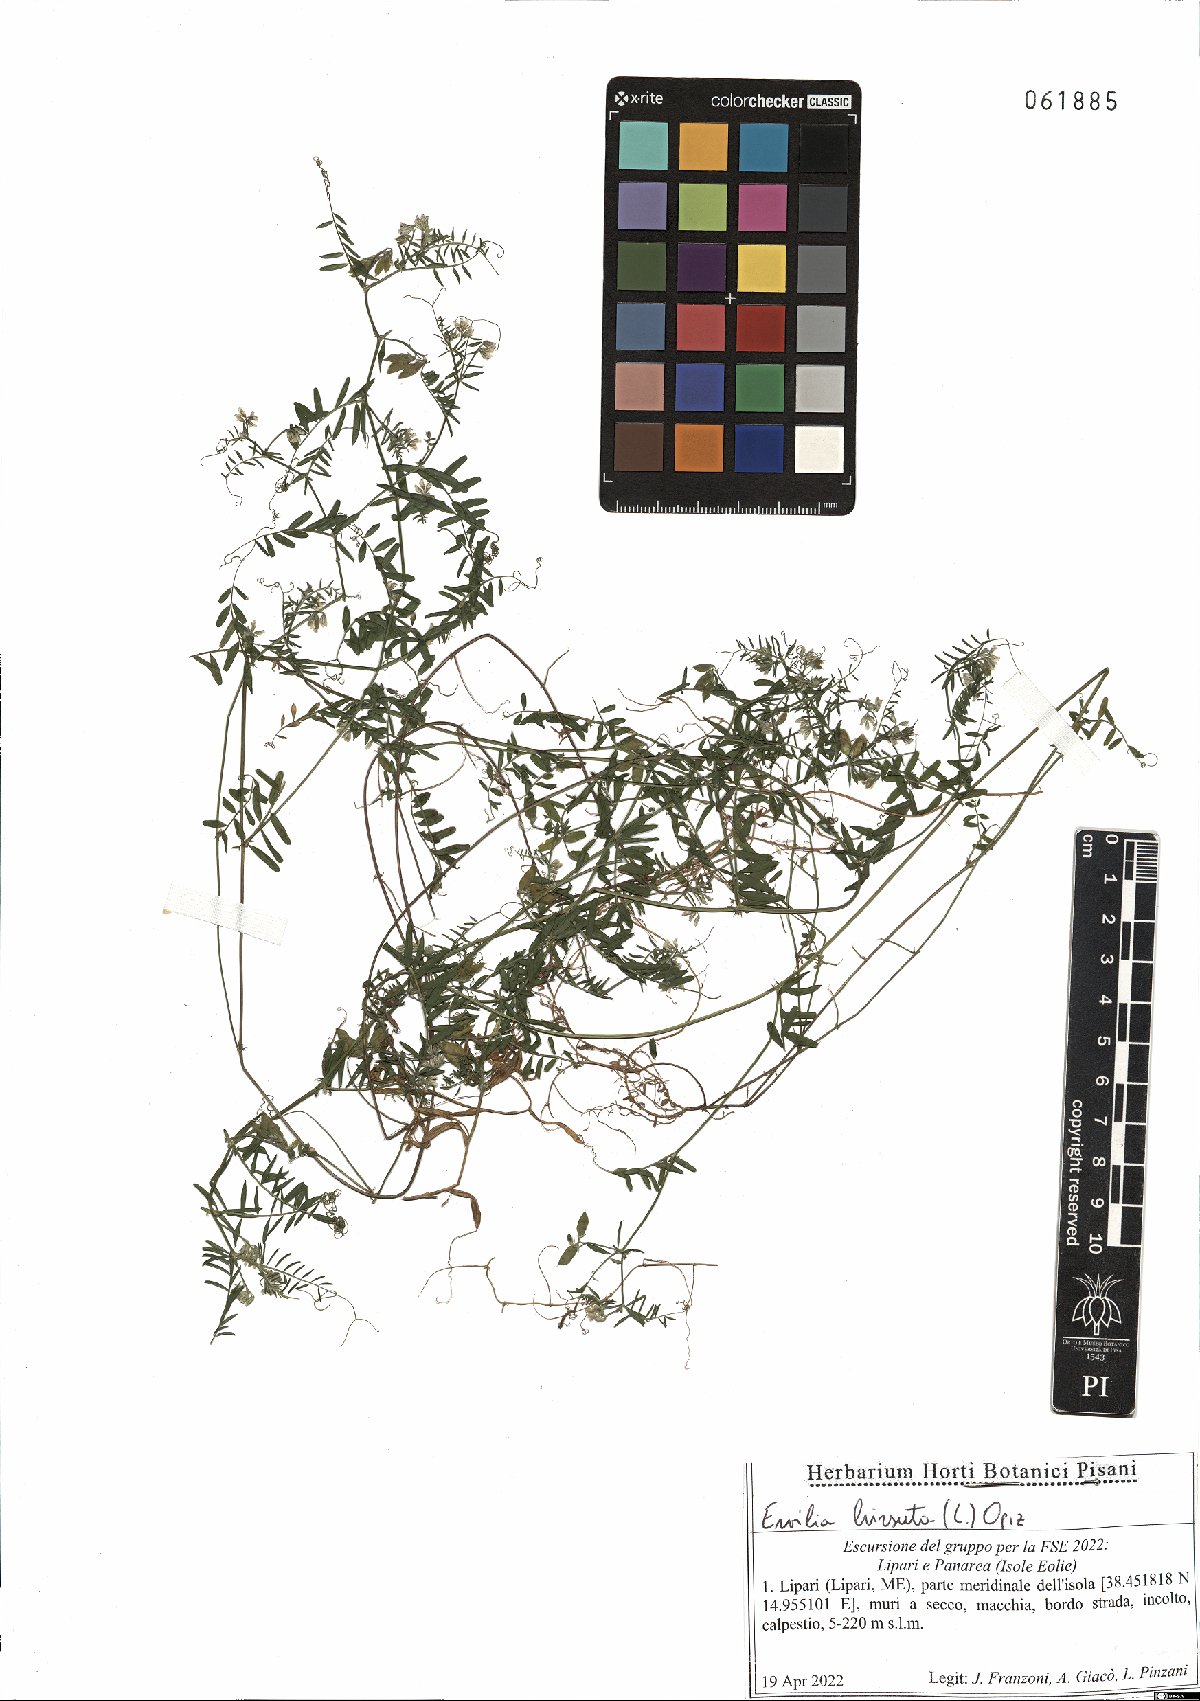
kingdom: Plantae
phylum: Tracheophyta
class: Magnoliopsida
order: Fabales
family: Fabaceae
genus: Vicia
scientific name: Vicia hirsuta
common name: Tiny vetch
